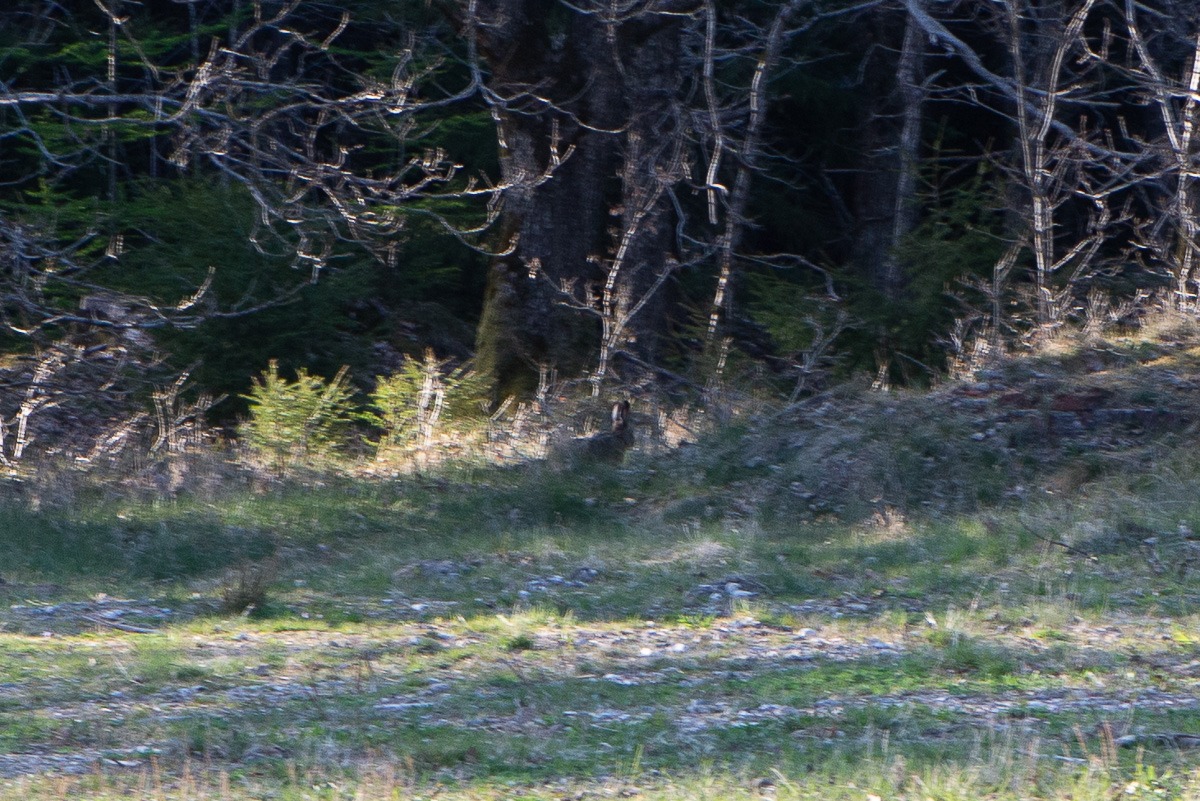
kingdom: Animalia
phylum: Chordata
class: Mammalia
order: Lagomorpha
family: Leporidae
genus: Lepus
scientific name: Lepus europaeus
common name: Hare
